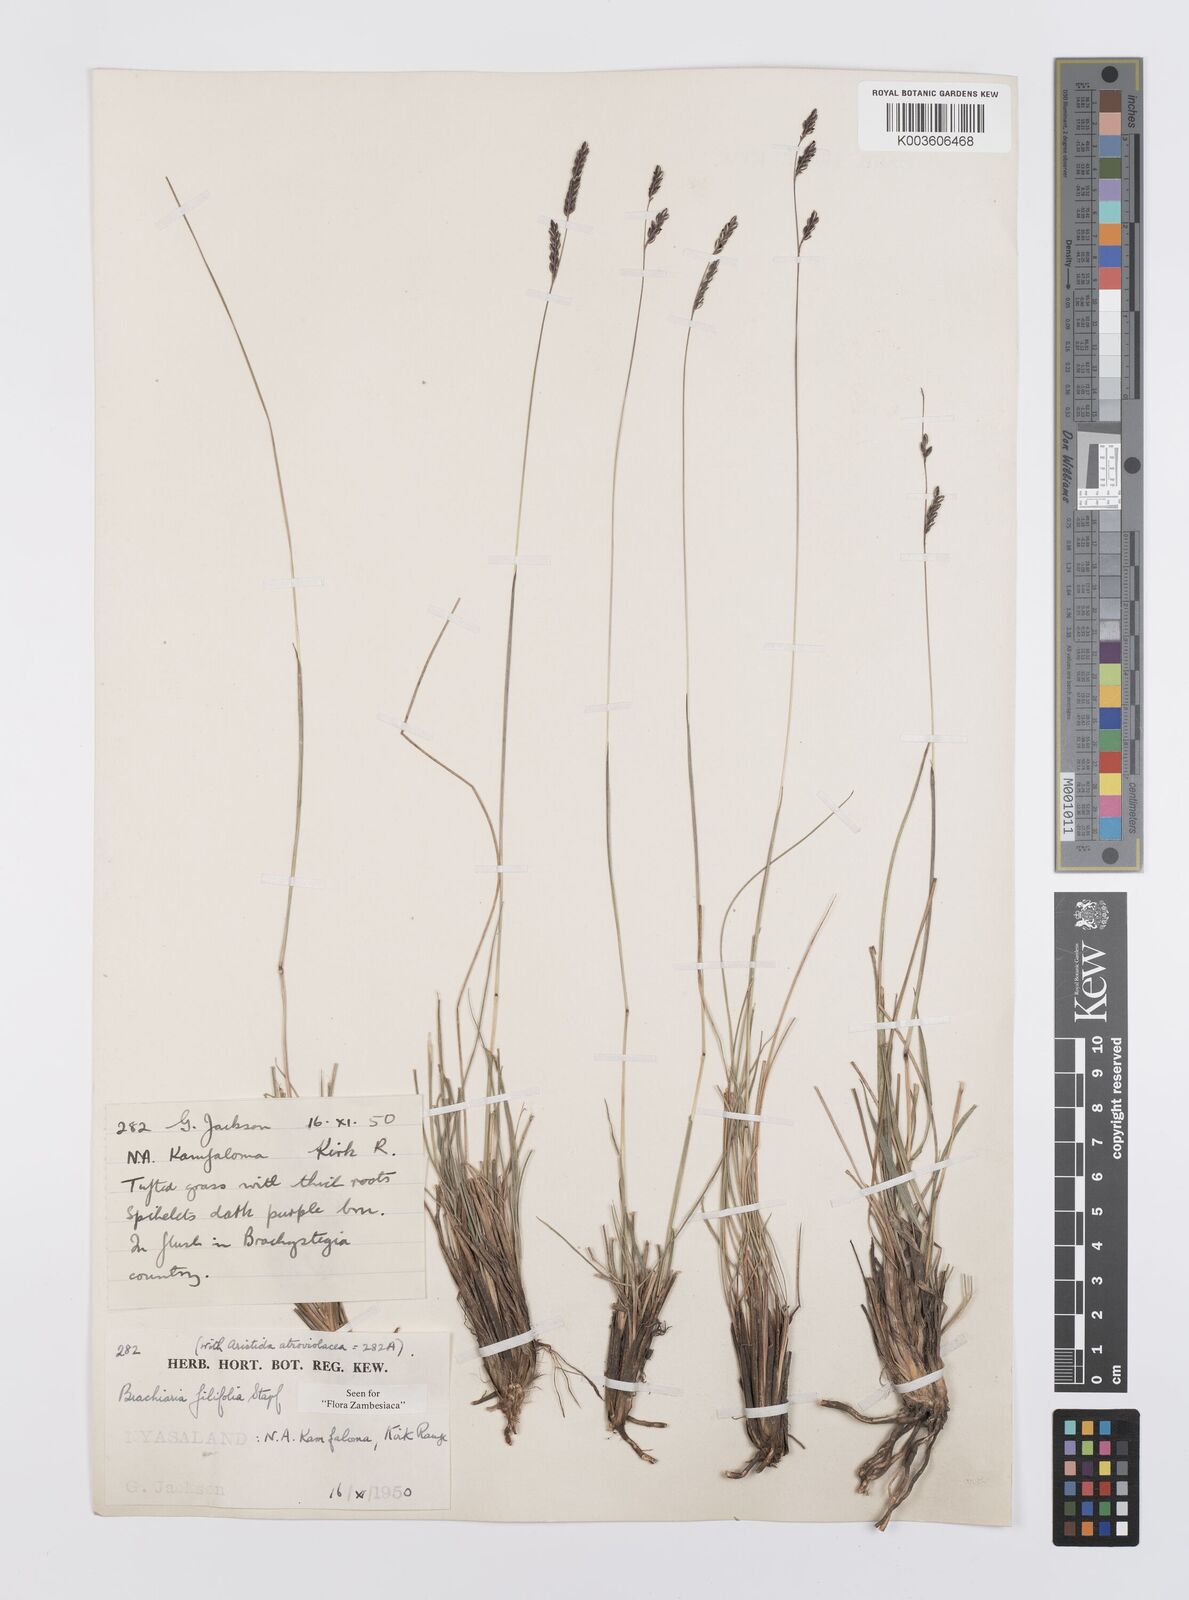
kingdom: Plantae
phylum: Tracheophyta
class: Liliopsida
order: Poales
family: Poaceae
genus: Urochloa
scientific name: Urochloa subulifolia
